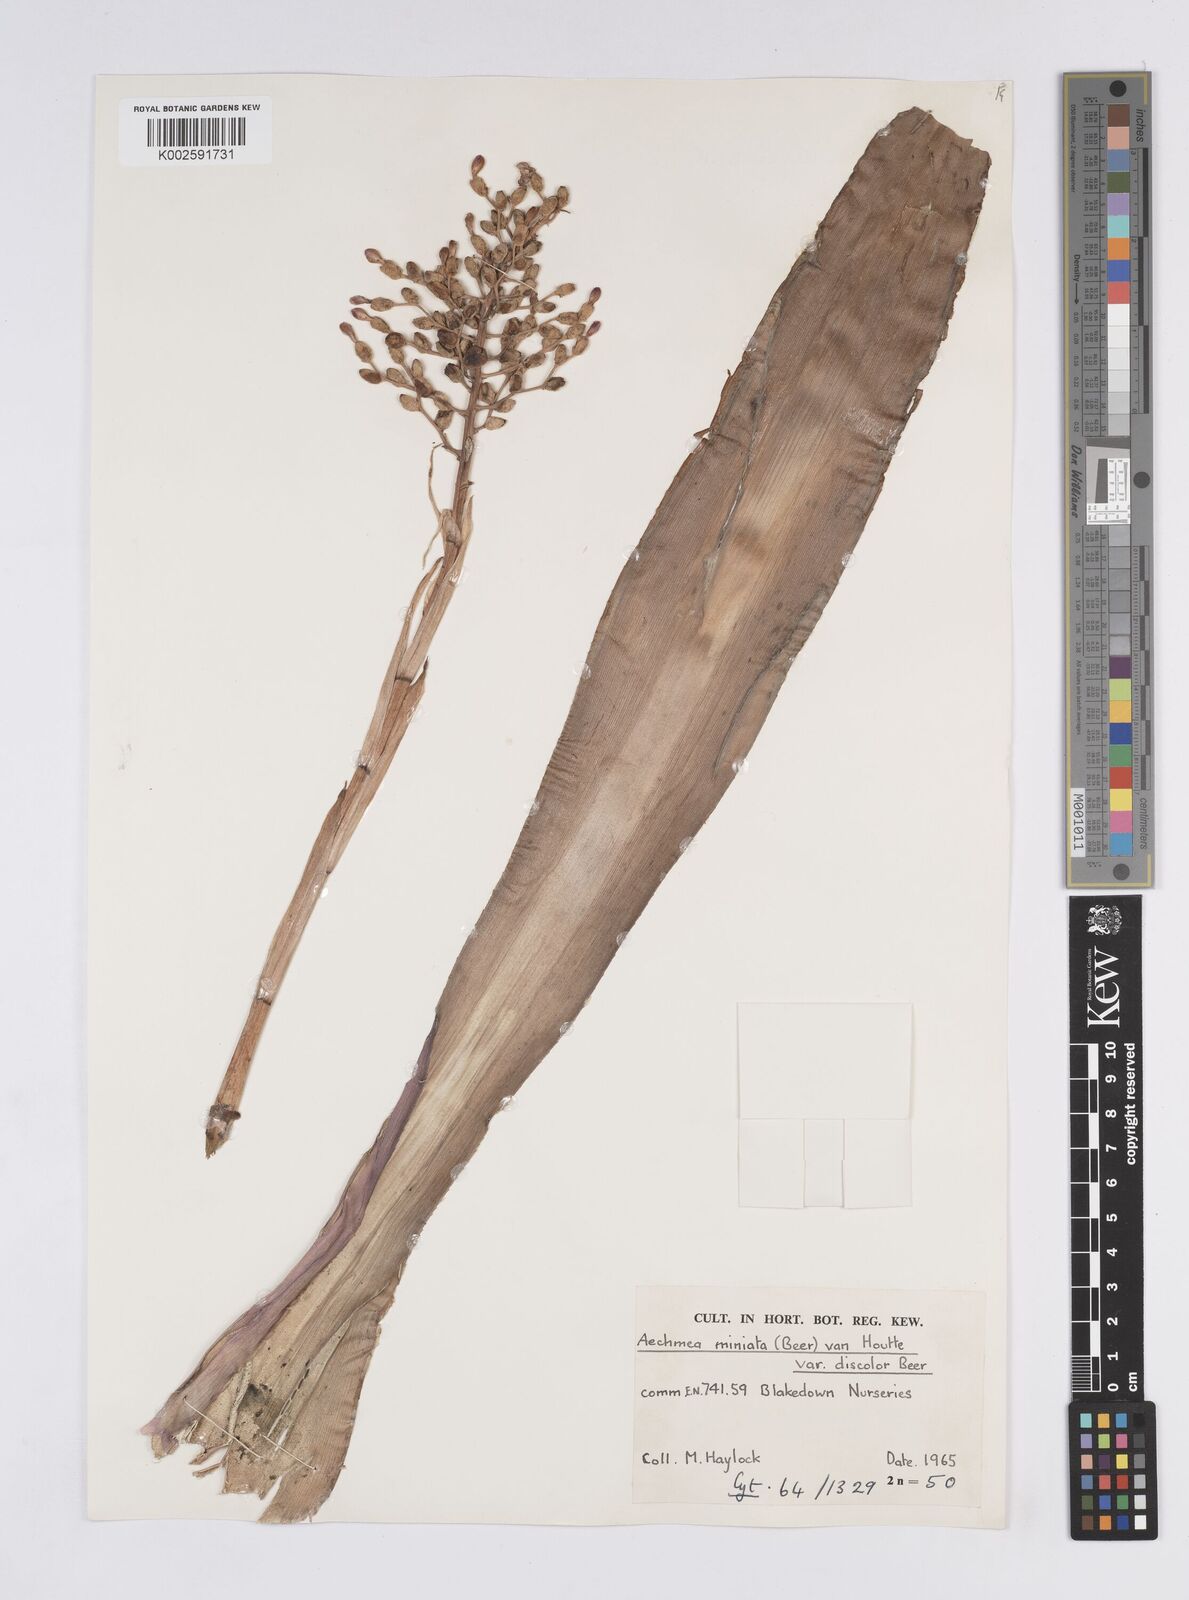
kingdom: Plantae
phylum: Tracheophyta
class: Liliopsida
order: Poales
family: Bromeliaceae
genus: Aechmea
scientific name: Aechmea miniata
